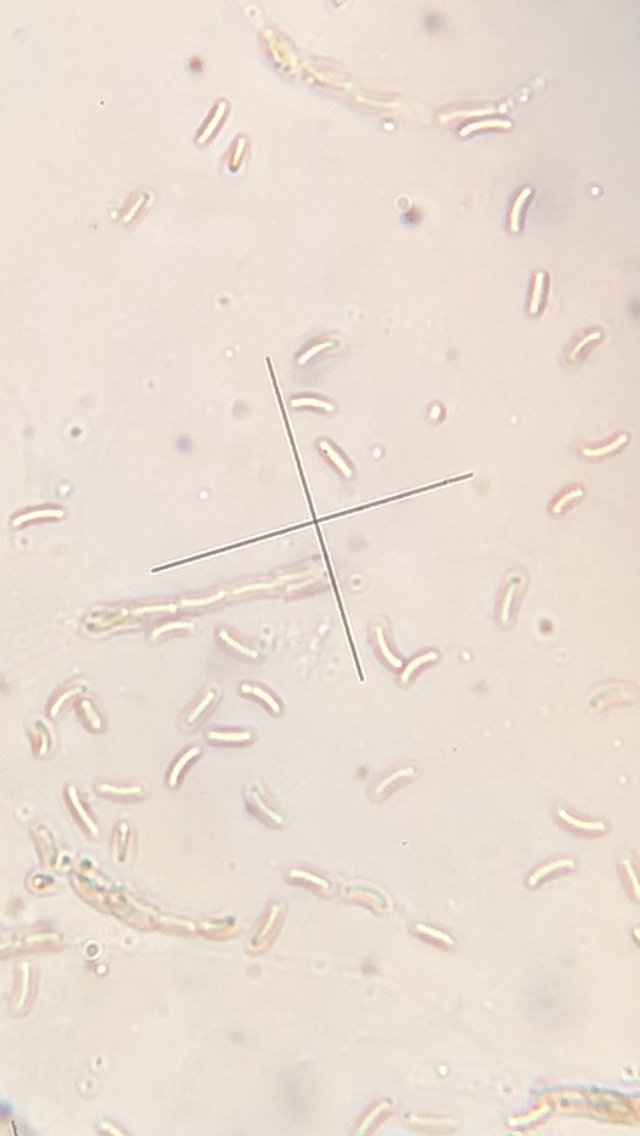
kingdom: Fungi
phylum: Ascomycota
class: Sordariomycetes
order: Xylariales
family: Diatrypaceae
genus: Diatrype
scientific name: Diatrype bullata
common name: pile-kulskorpe
